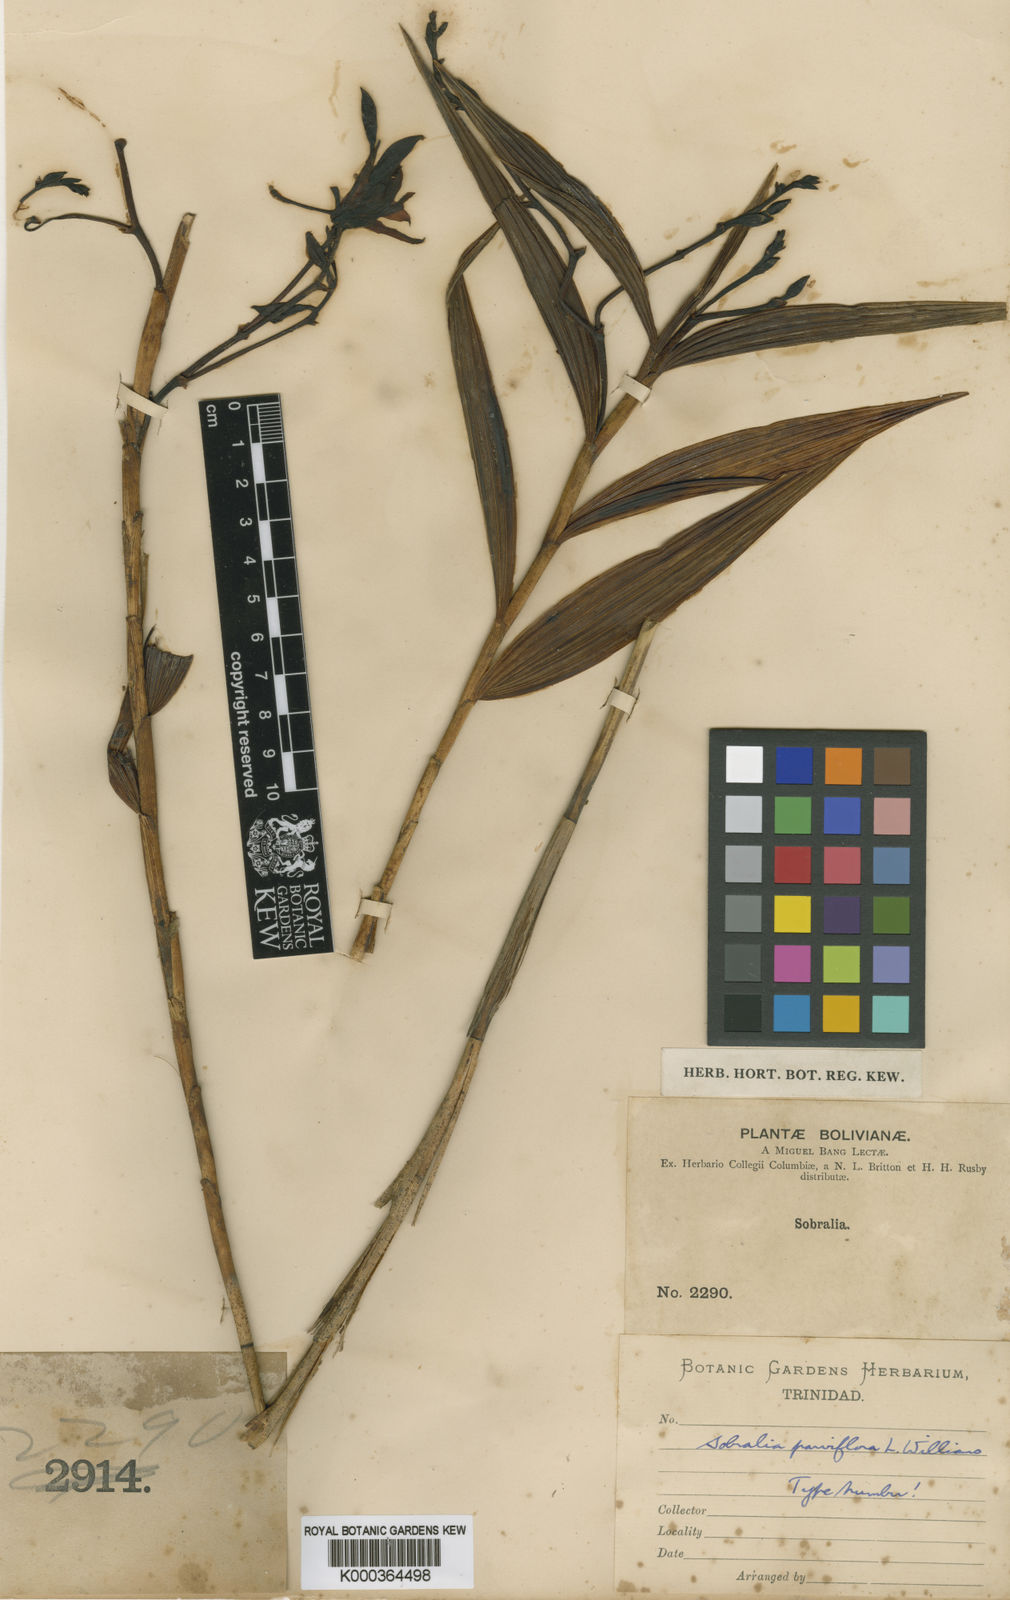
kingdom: Plantae
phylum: Tracheophyta
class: Liliopsida
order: Asparagales
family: Orchidaceae
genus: Sobralia
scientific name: Sobralia dorbignyana
